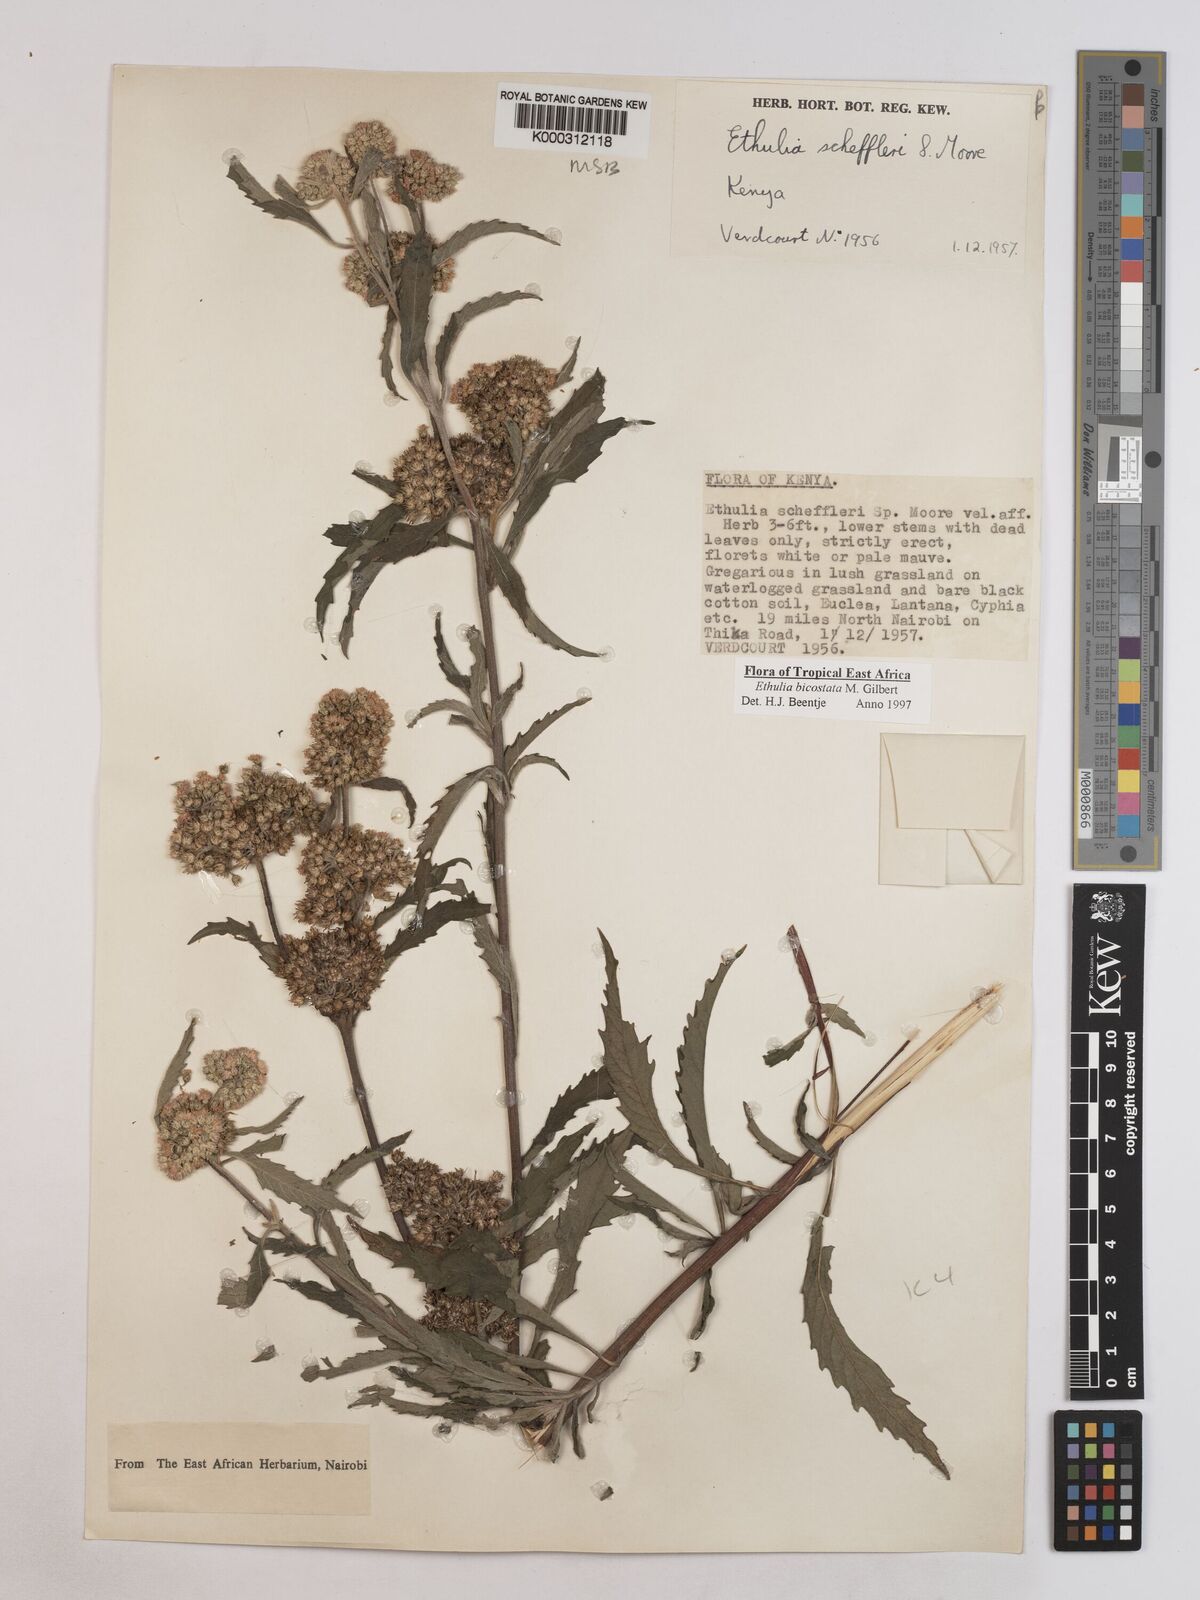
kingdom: Plantae
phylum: Tracheophyta
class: Magnoliopsida
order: Asterales
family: Asteraceae
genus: Ethulia
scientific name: Ethulia bicostata
